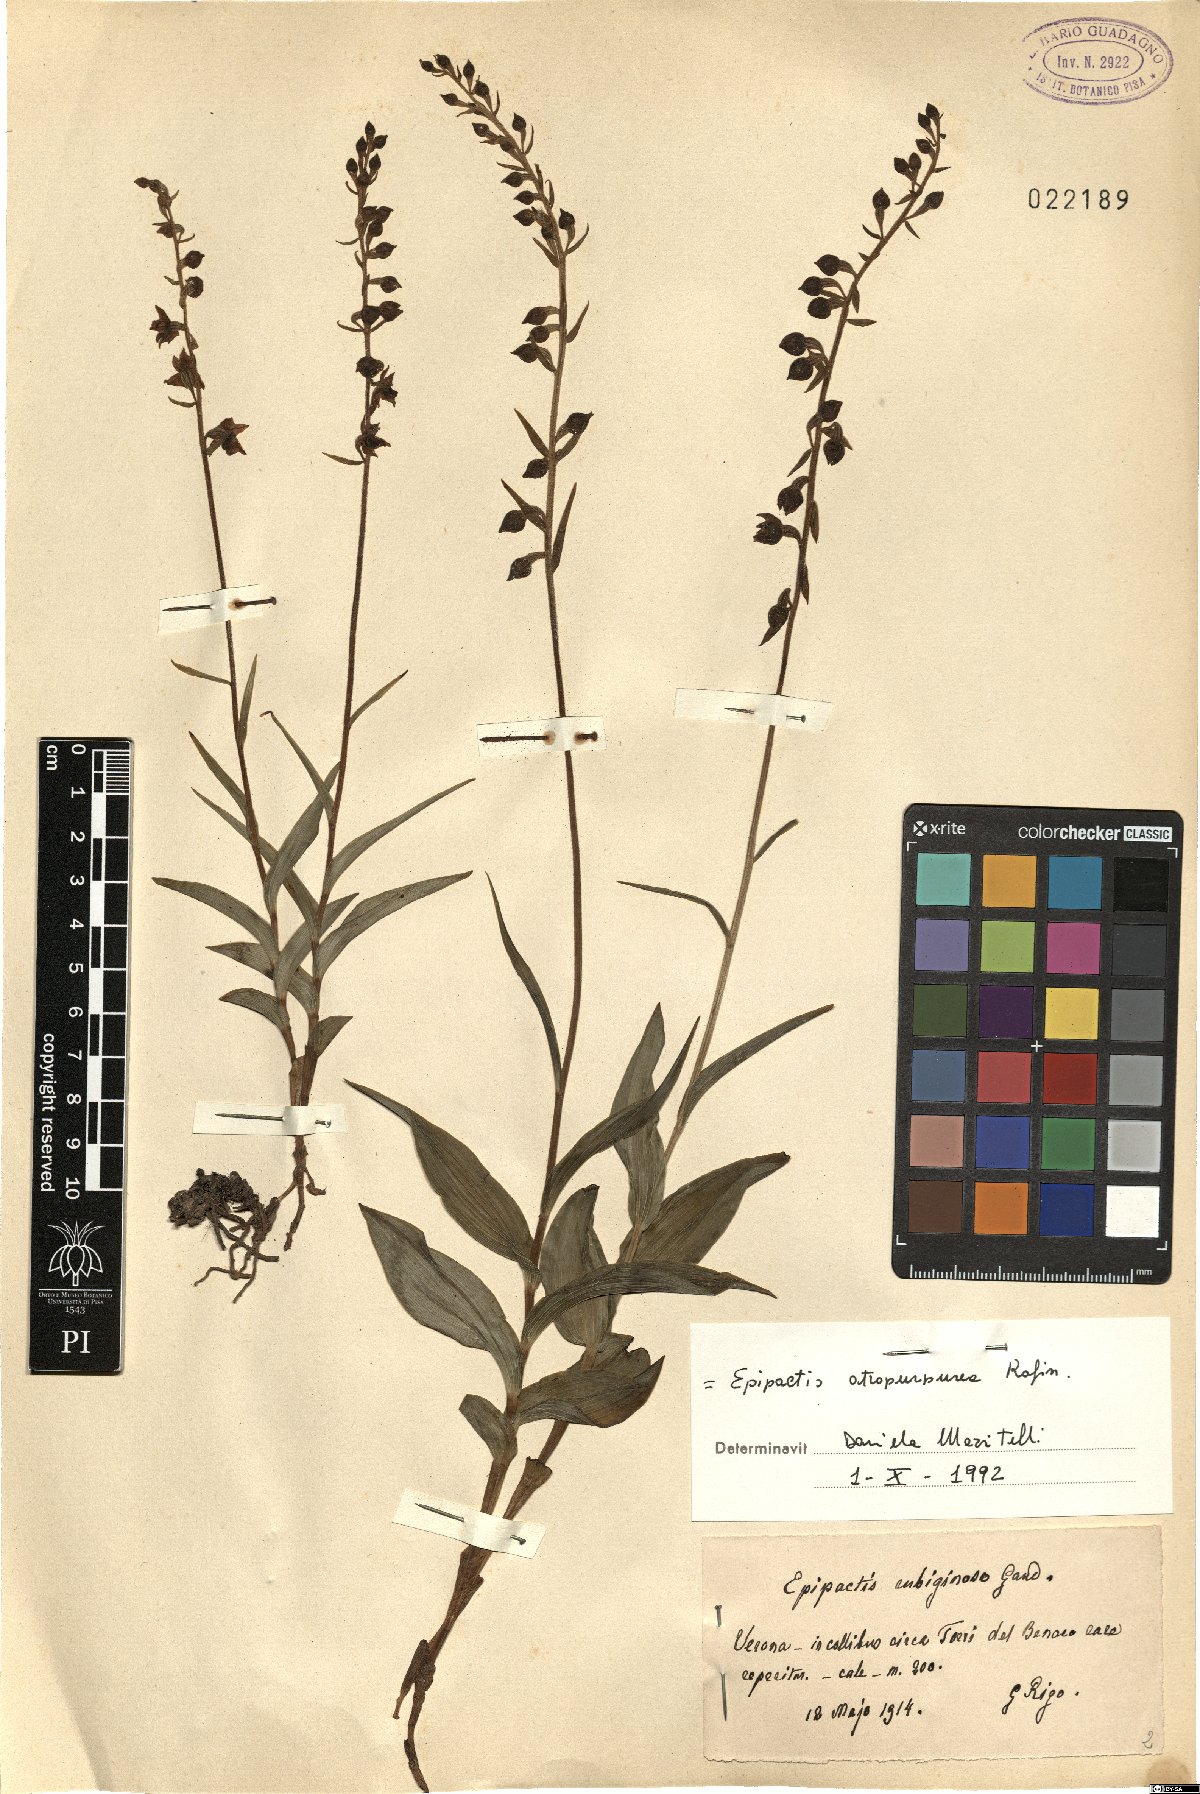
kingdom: Plantae
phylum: Tracheophyta
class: Liliopsida
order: Asparagales
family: Orchidaceae
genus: Epipactis
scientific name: Epipactis atrorubens
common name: Dark-red helleborine
